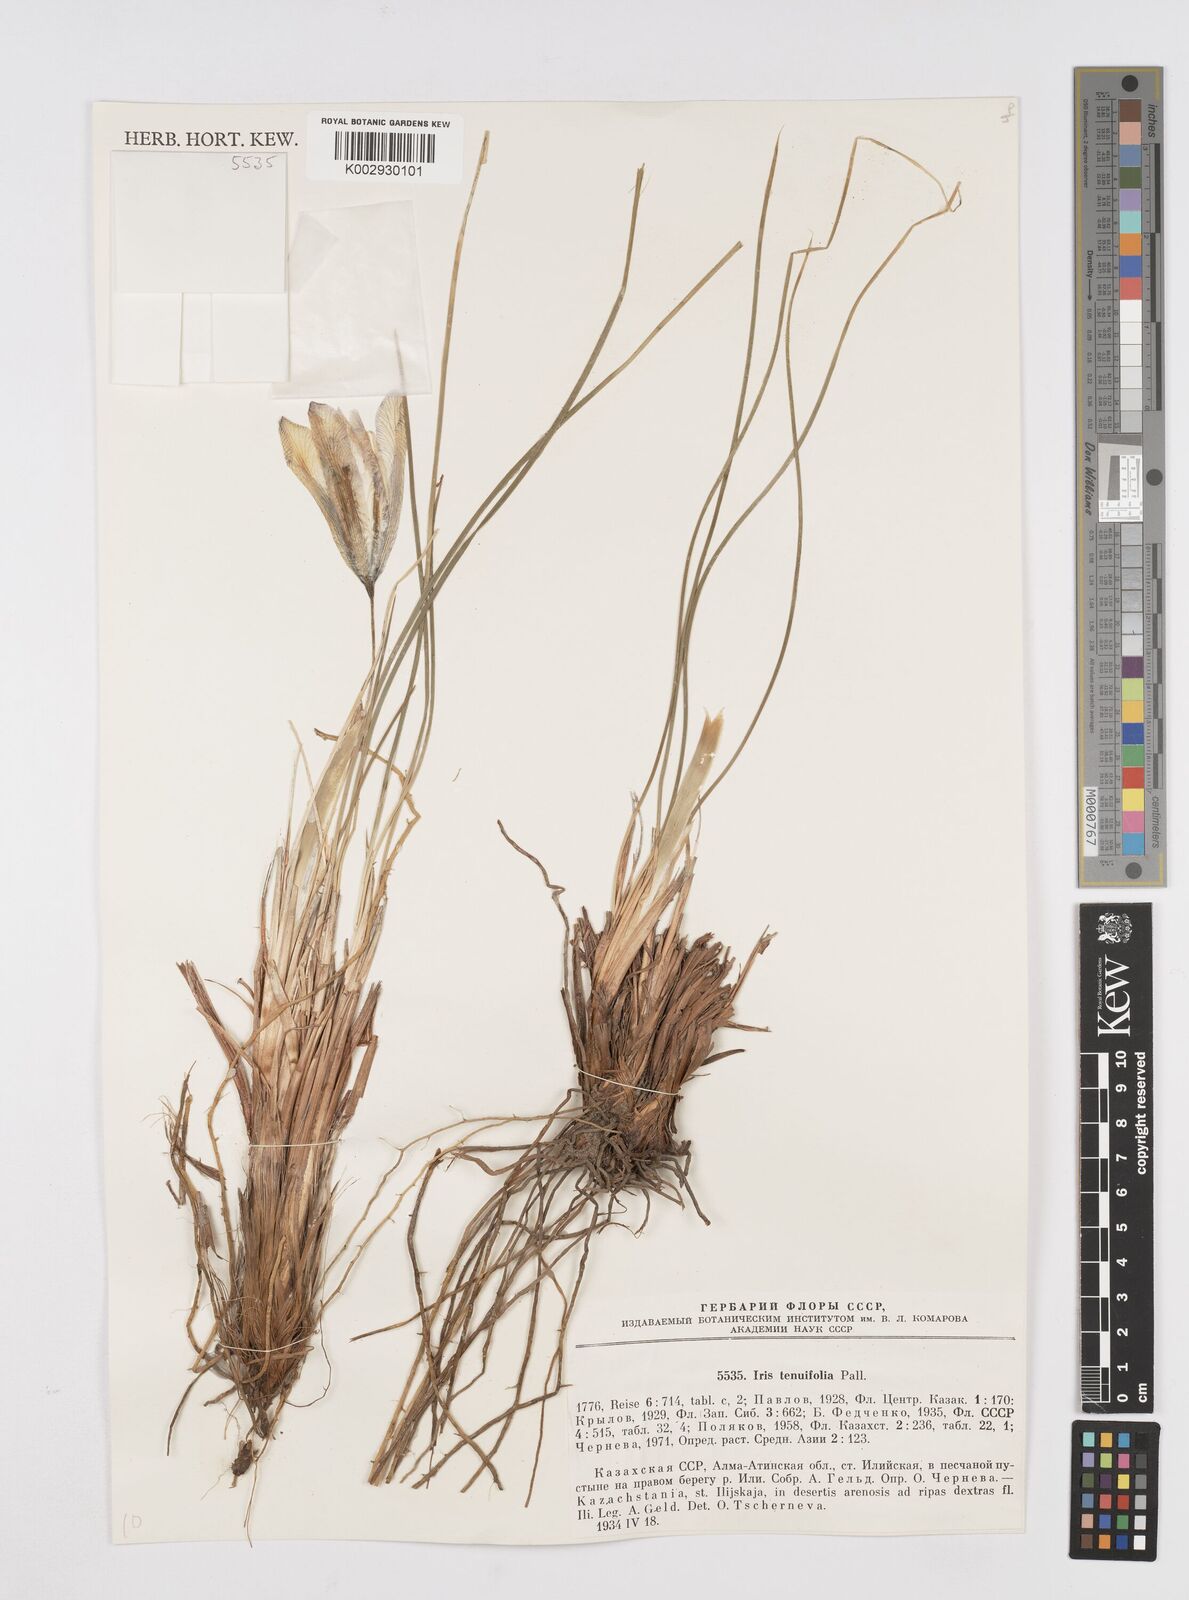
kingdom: Plantae
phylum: Tracheophyta
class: Liliopsida
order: Asparagales
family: Iridaceae
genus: Iris
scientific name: Iris tenuifolia
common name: Slender-leaf iris
